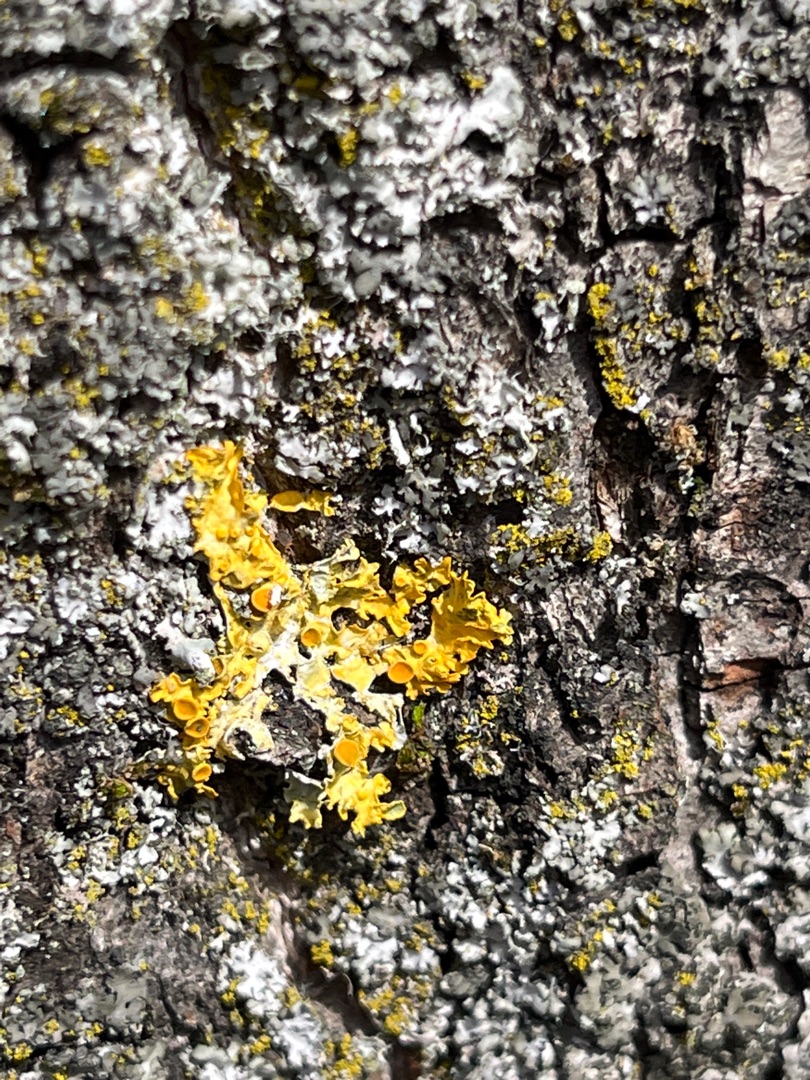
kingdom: Fungi
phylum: Ascomycota
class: Lecanoromycetes
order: Teloschistales
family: Teloschistaceae
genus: Xanthoria
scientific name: Xanthoria parietina
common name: Almindelig væggelav
